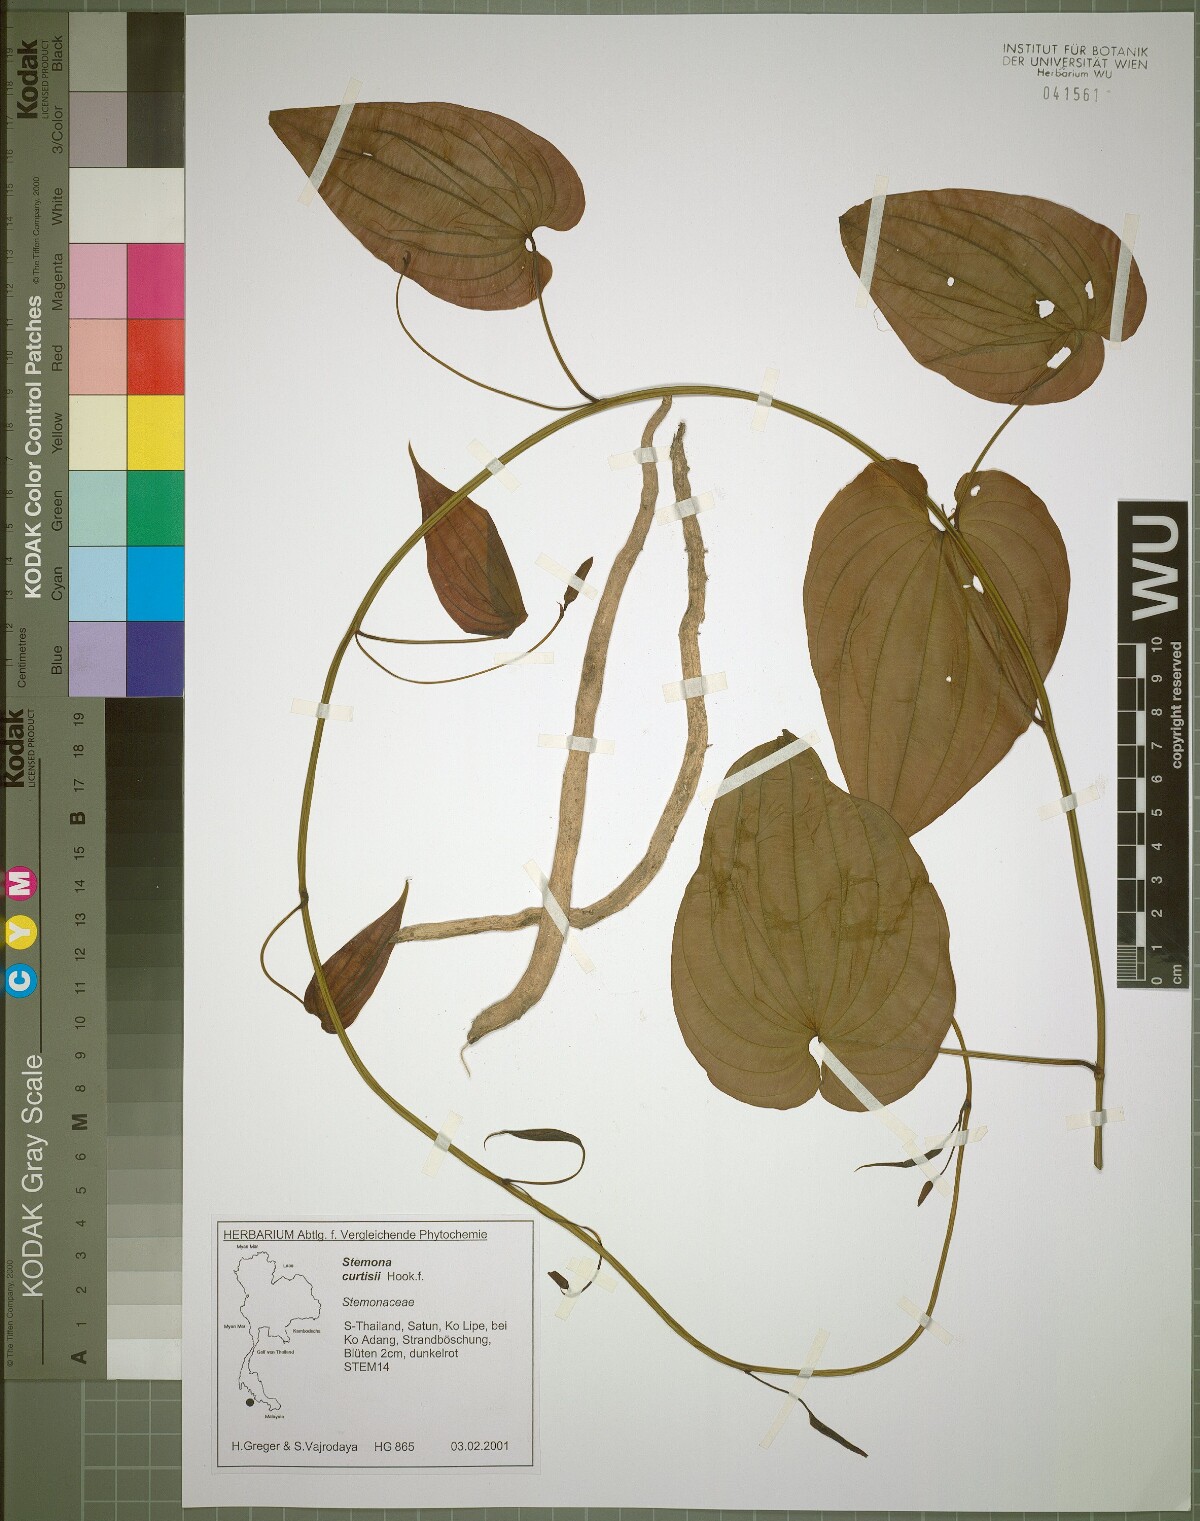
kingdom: Plantae
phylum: Tracheophyta
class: Liliopsida
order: Pandanales
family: Stemonaceae
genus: Stemona
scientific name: Stemona curtisii
